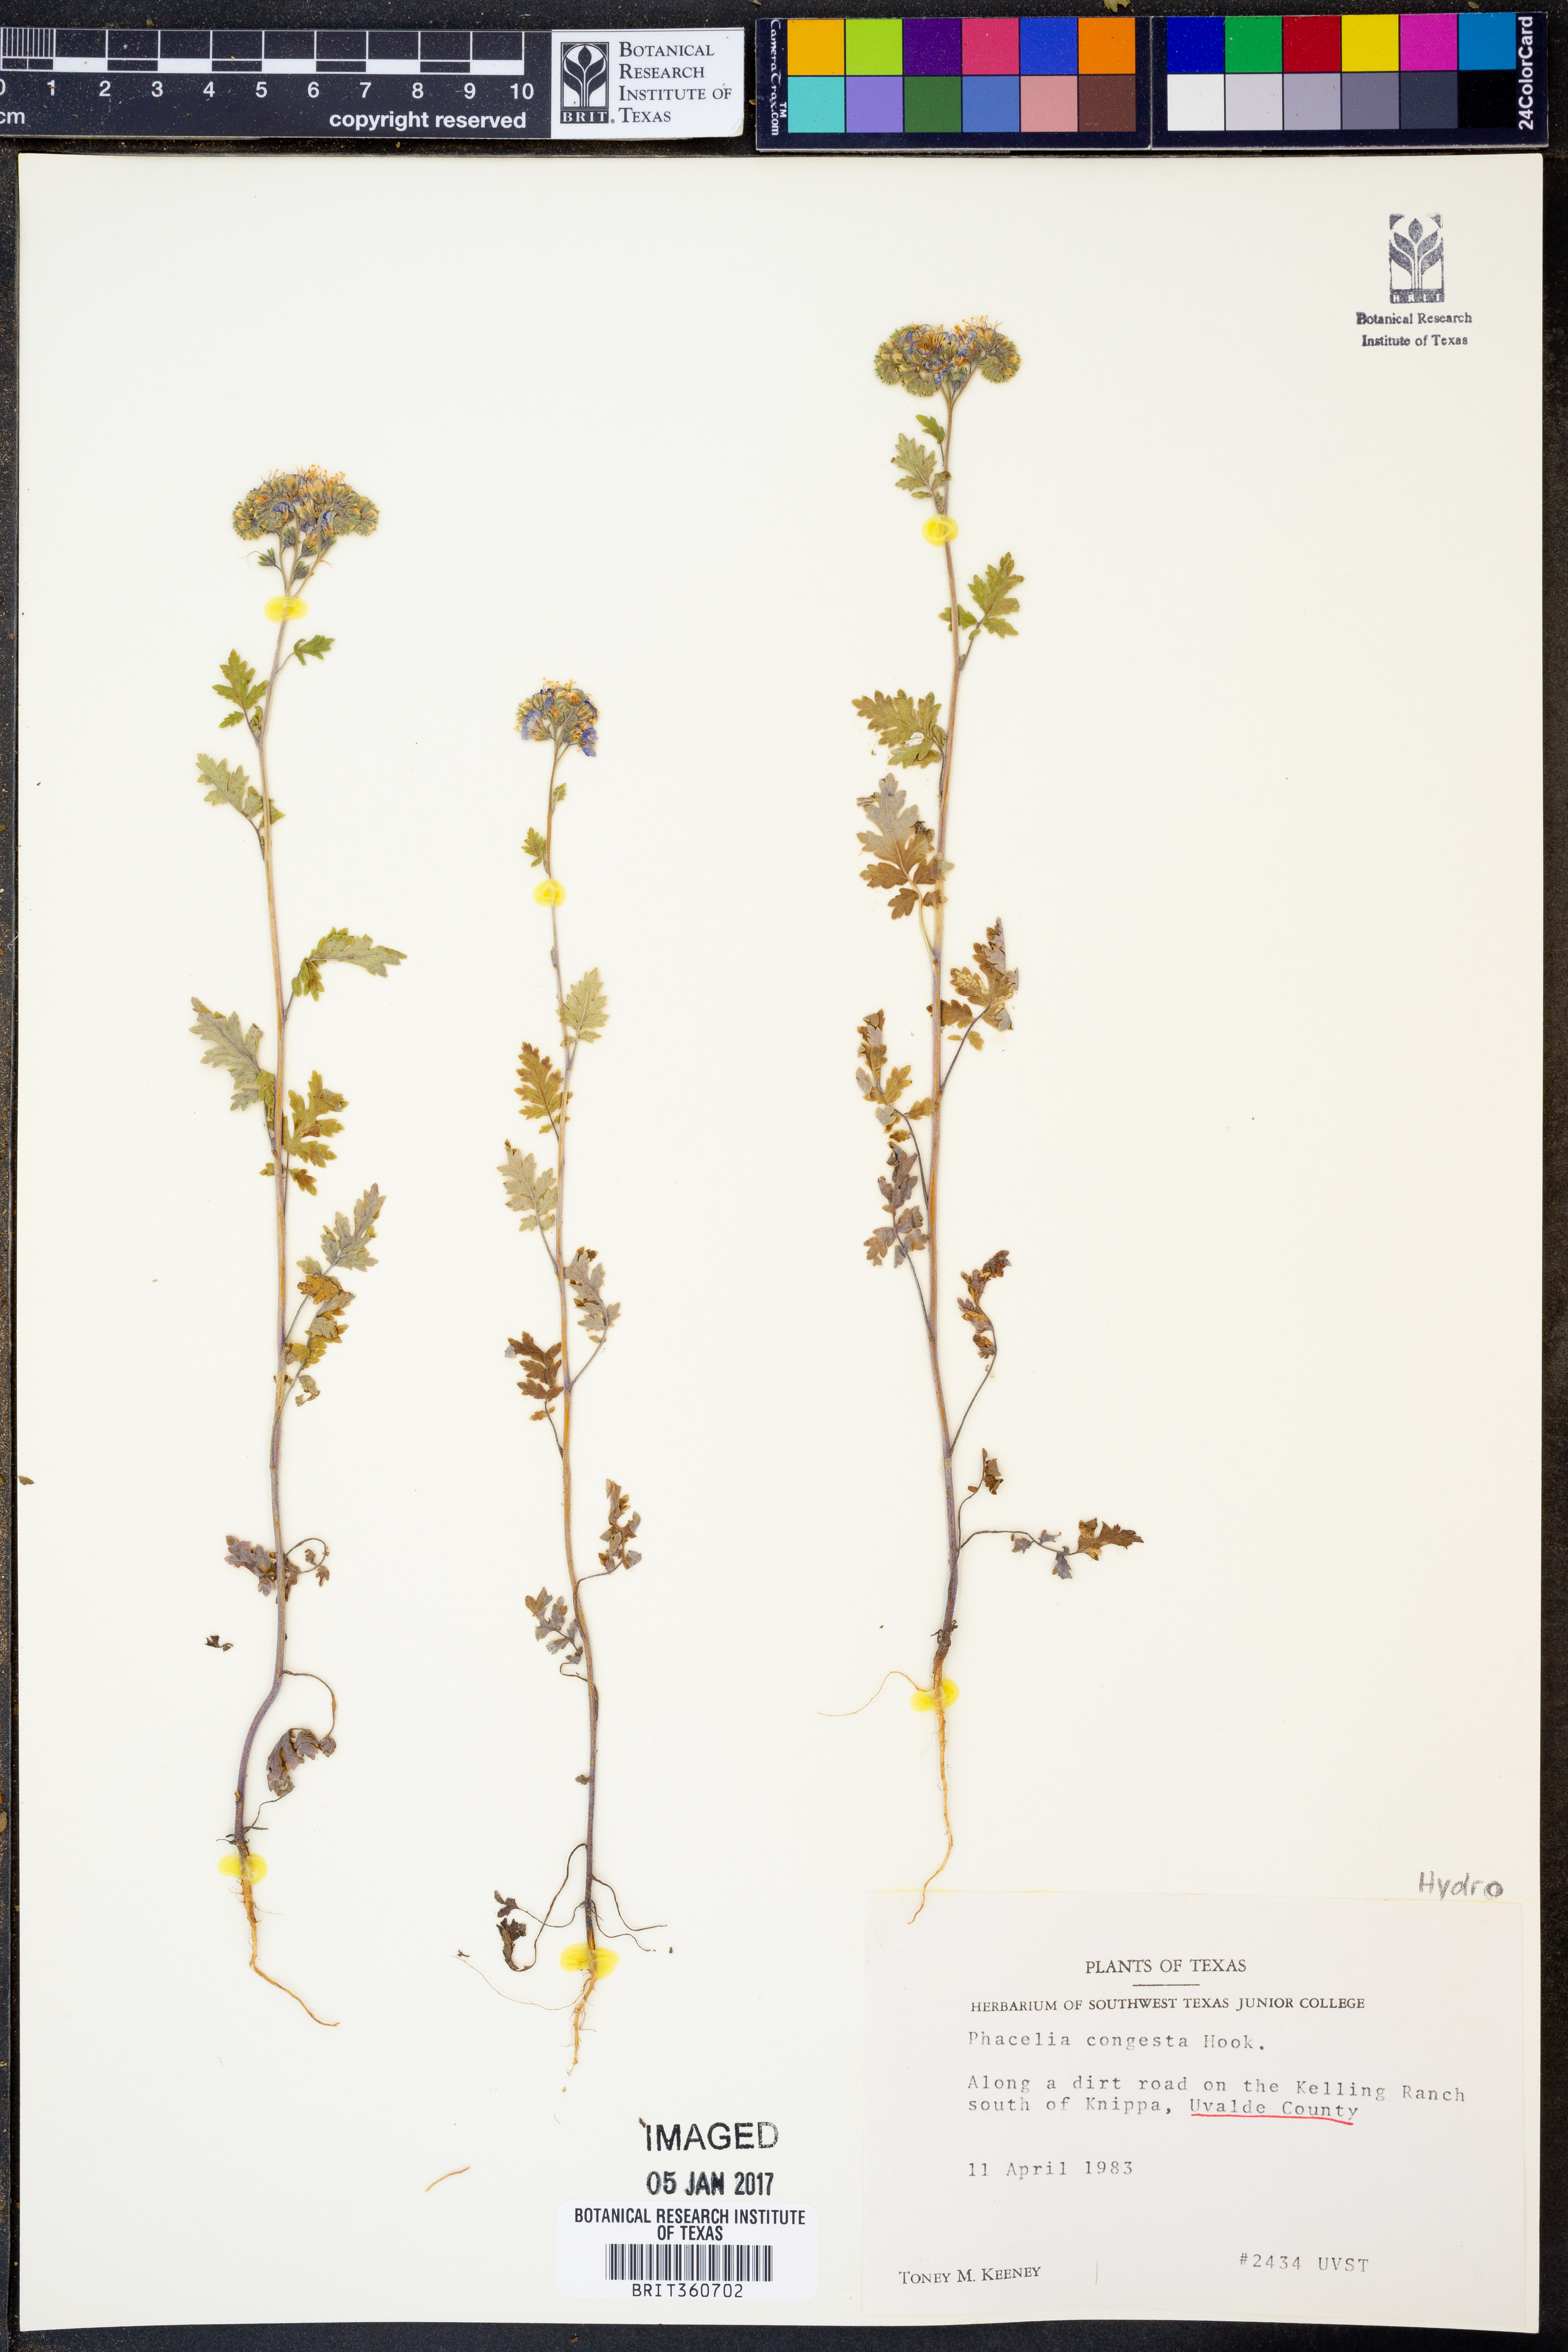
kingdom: Plantae
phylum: Tracheophyta
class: Magnoliopsida
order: Boraginales
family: Hydrophyllaceae
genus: Phacelia
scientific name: Phacelia congesta
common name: Blue curls
